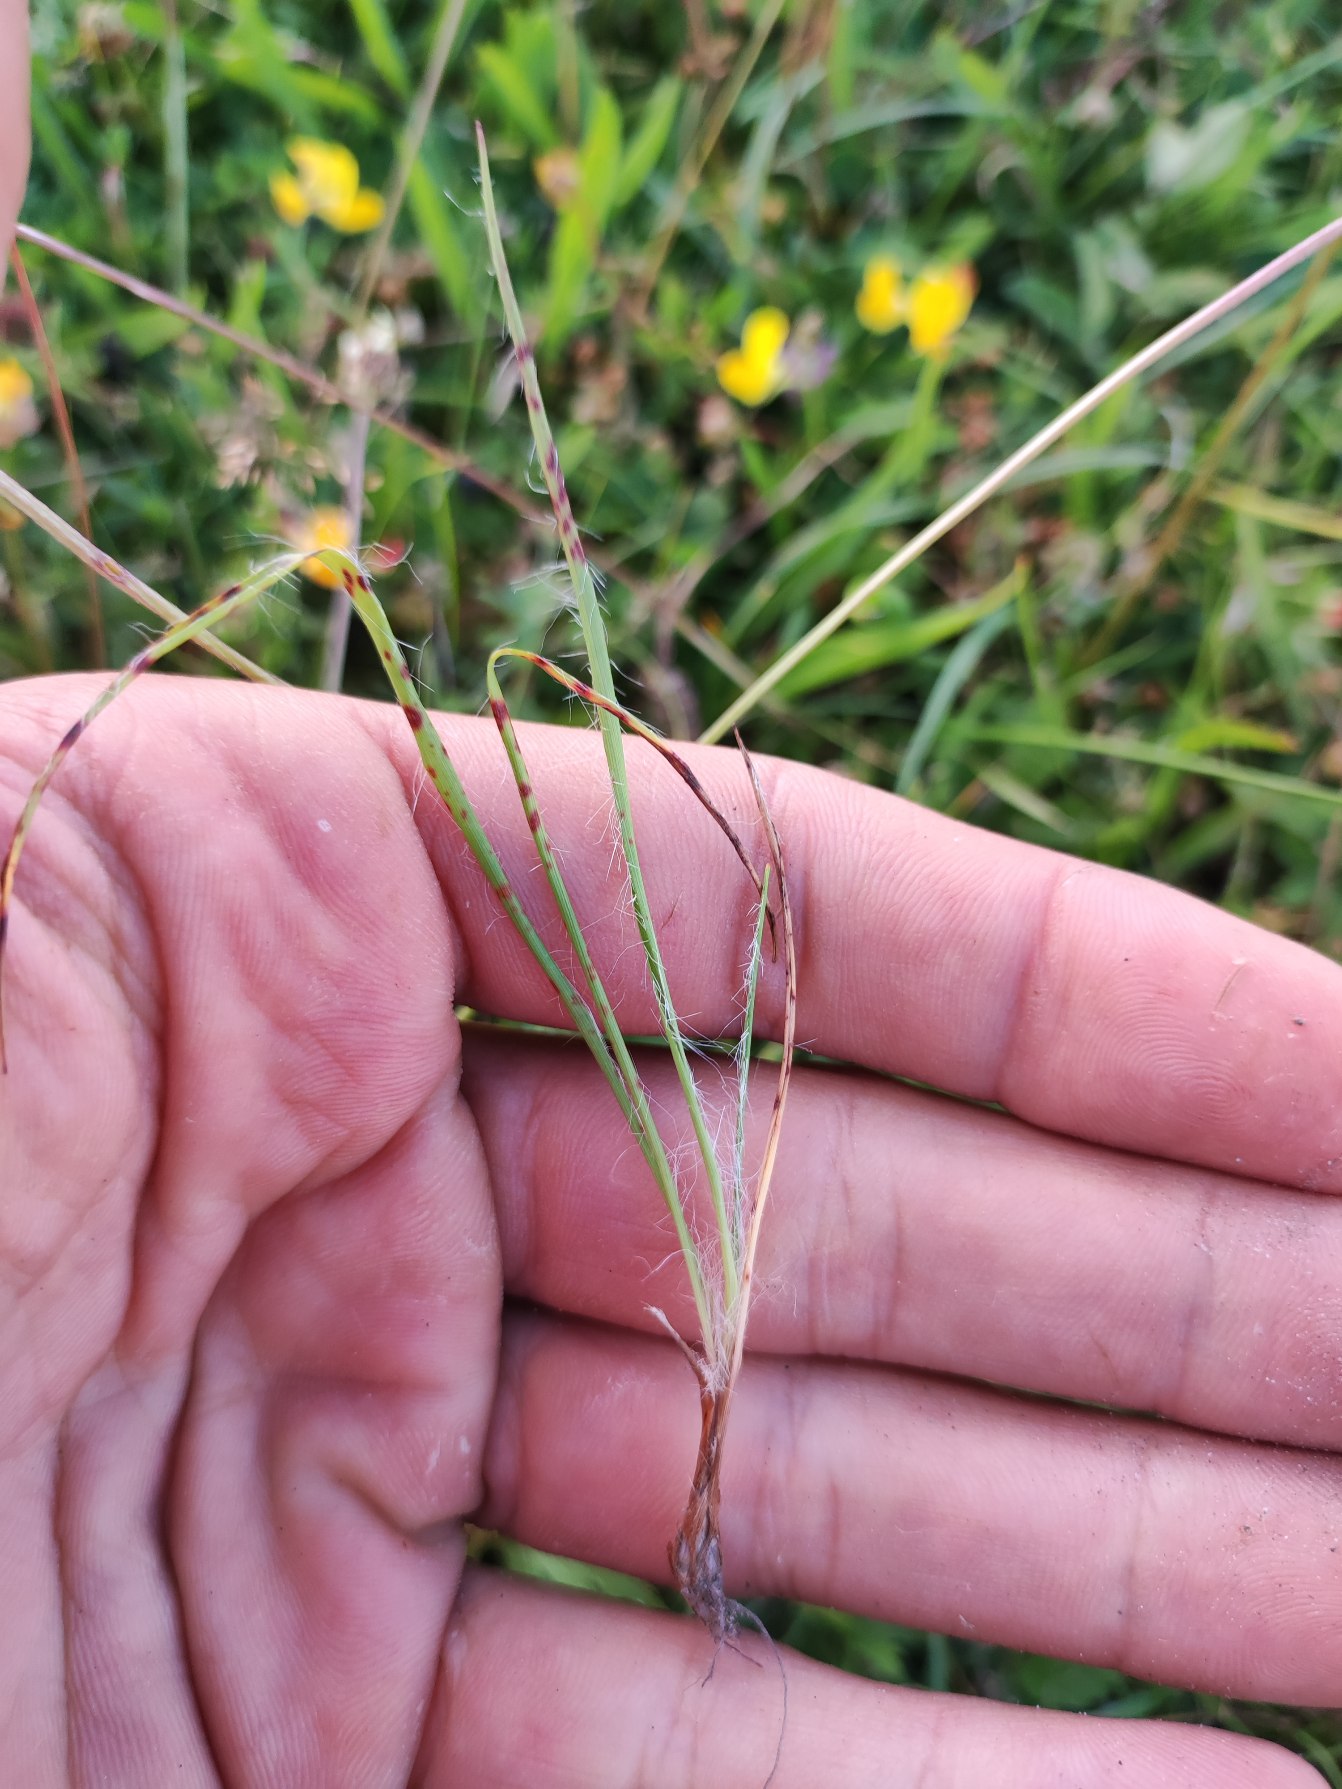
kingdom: Plantae
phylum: Tracheophyta
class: Liliopsida
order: Poales
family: Juncaceae
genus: Luzula
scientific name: Luzula campestris
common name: Mark-frytle
